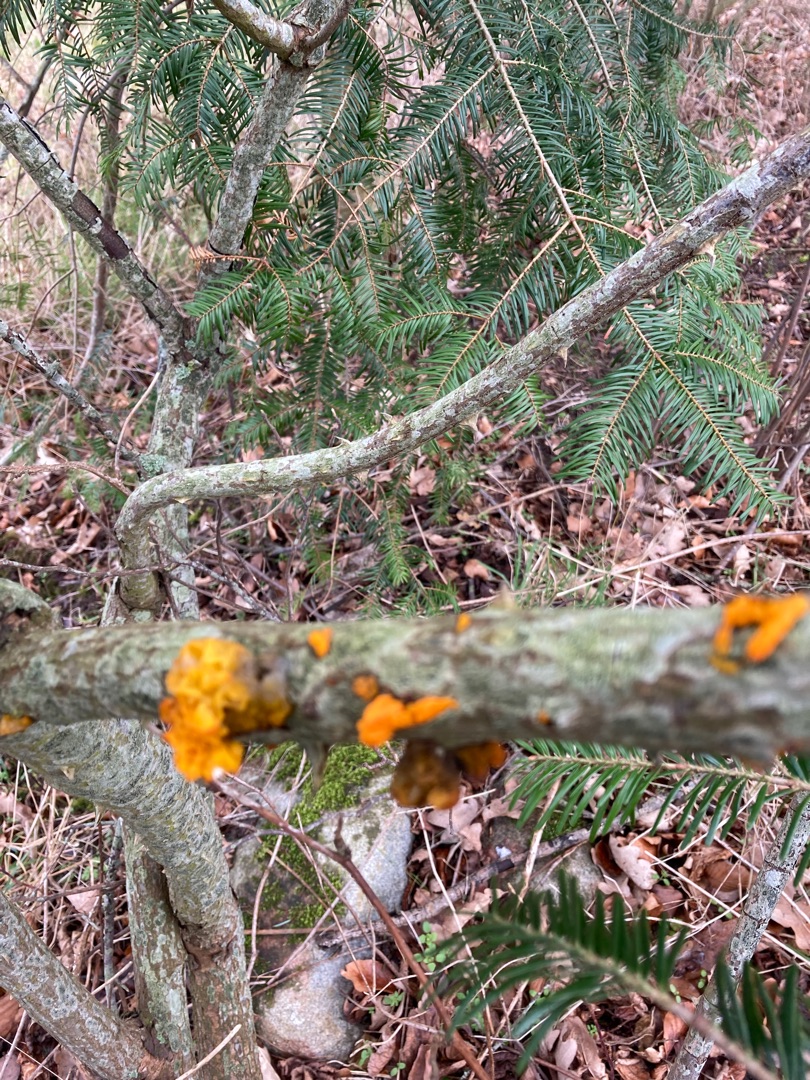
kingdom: Fungi
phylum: Basidiomycota
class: Tremellomycetes
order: Tremellales
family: Tremellaceae
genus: Tremella
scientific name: Tremella mesenterica
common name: Gul bævresvamp
